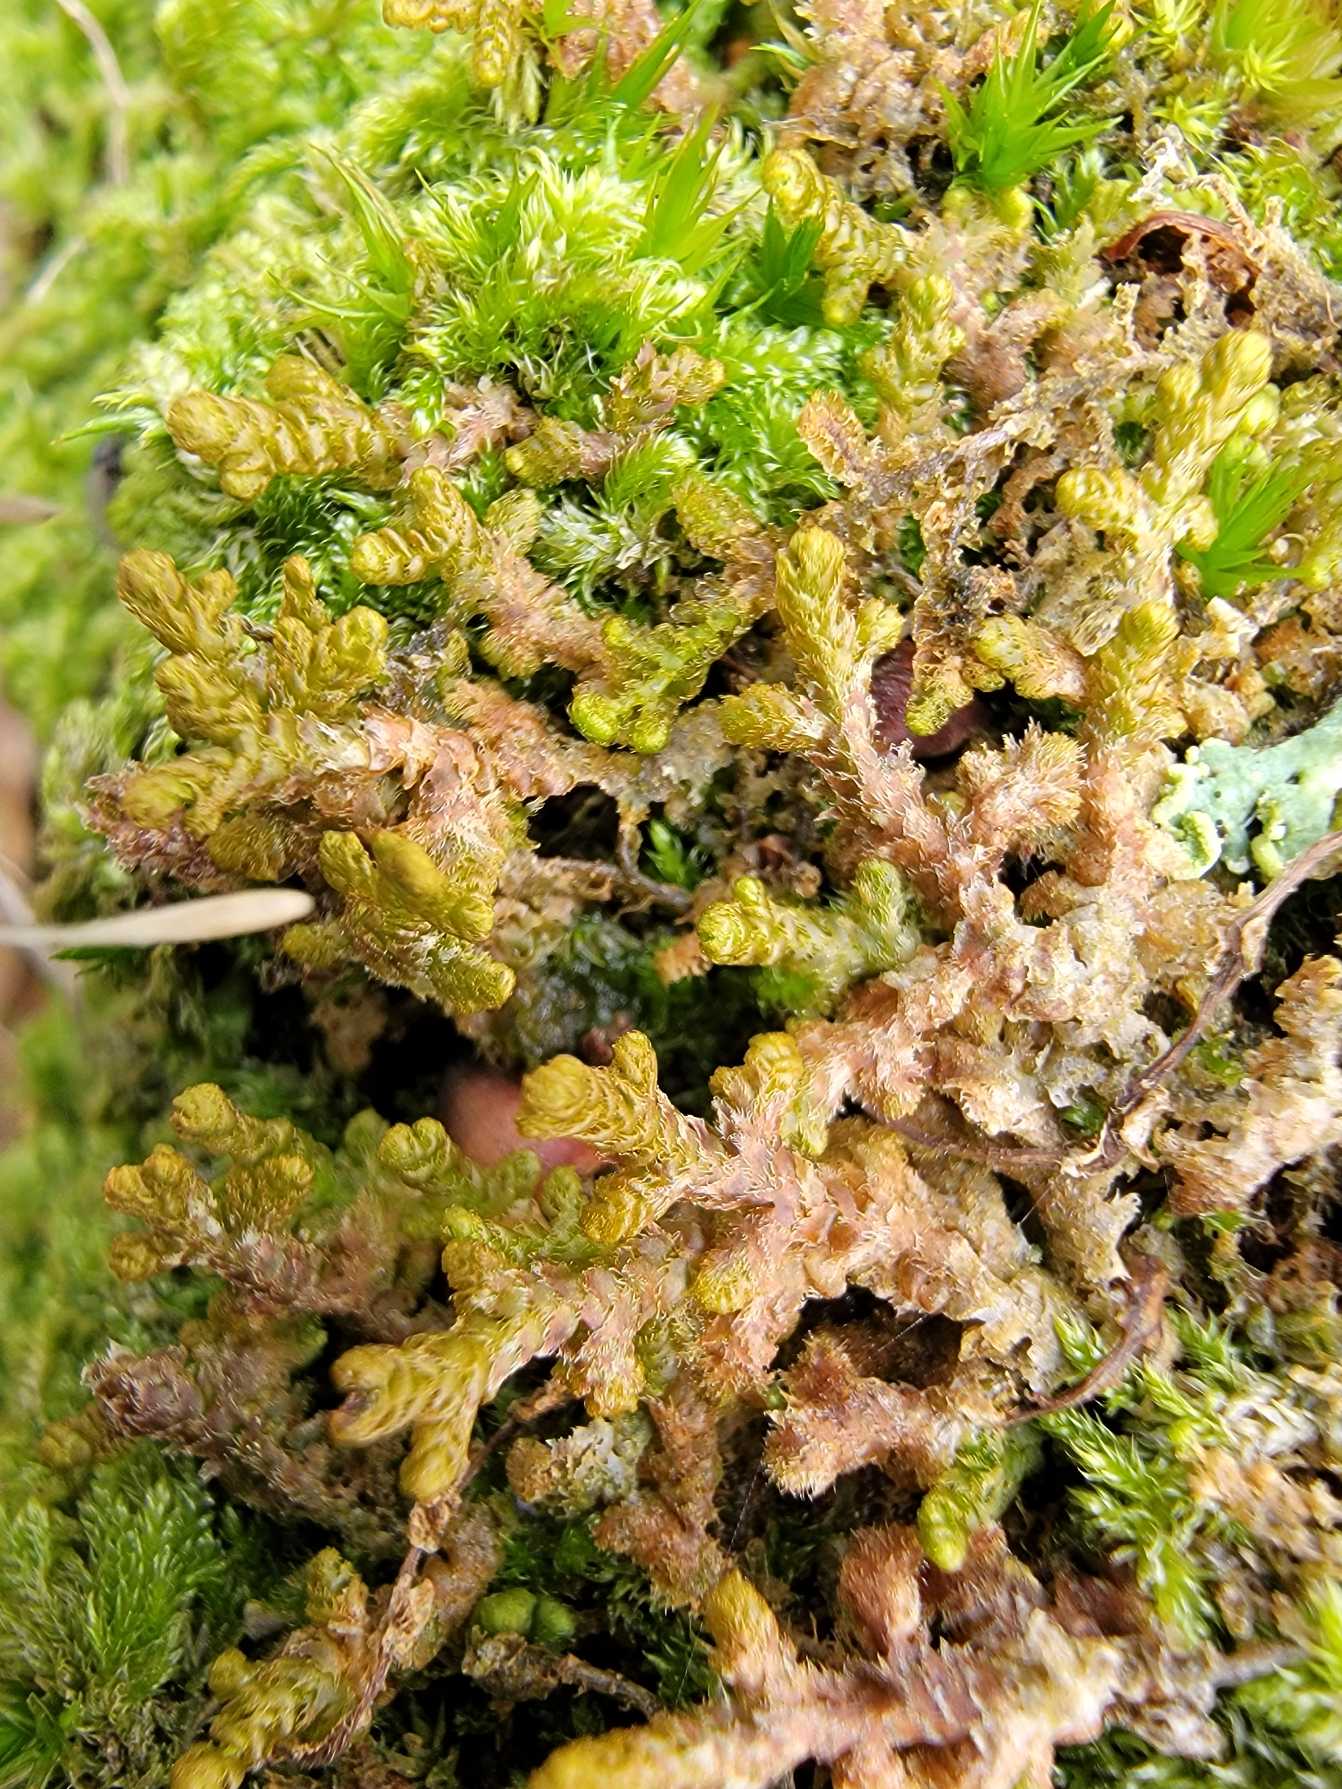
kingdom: Plantae
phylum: Marchantiophyta
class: Jungermanniopsida
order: Ptilidiales
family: Ptilidiaceae
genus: Ptilidium
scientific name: Ptilidium ciliare
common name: Almindelig frynsemos
